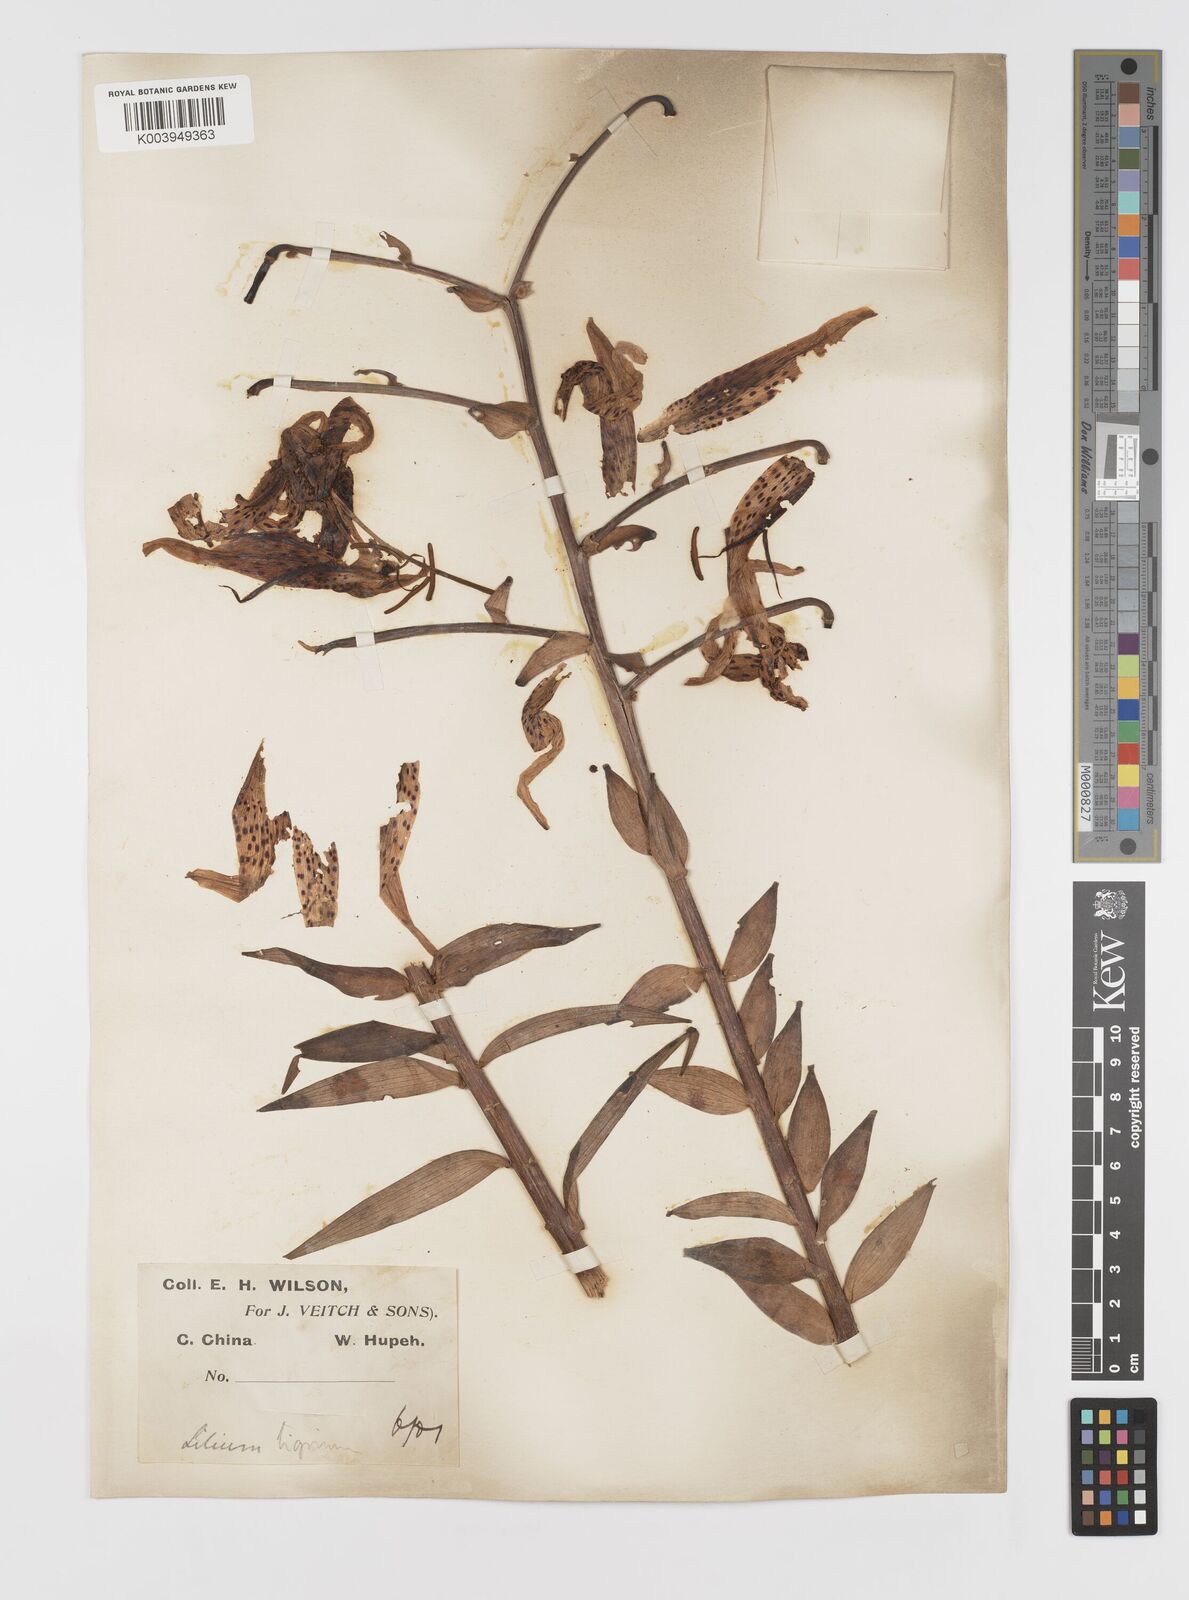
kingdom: Plantae
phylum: Tracheophyta
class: Liliopsida
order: Liliales
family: Liliaceae
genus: Lilium
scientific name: Lilium lancifolium
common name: Tiger lily
